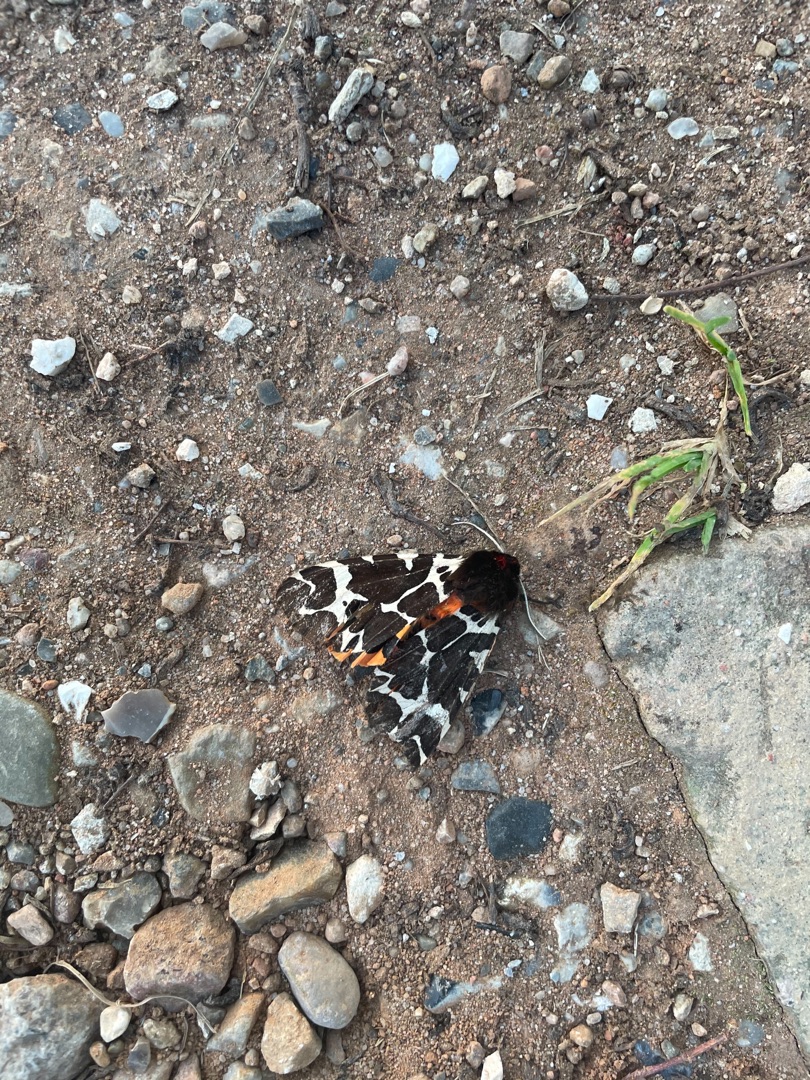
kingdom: Animalia
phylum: Arthropoda
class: Insecta
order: Lepidoptera
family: Erebidae
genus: Arctia
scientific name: Arctia caja
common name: Brun bjørn
